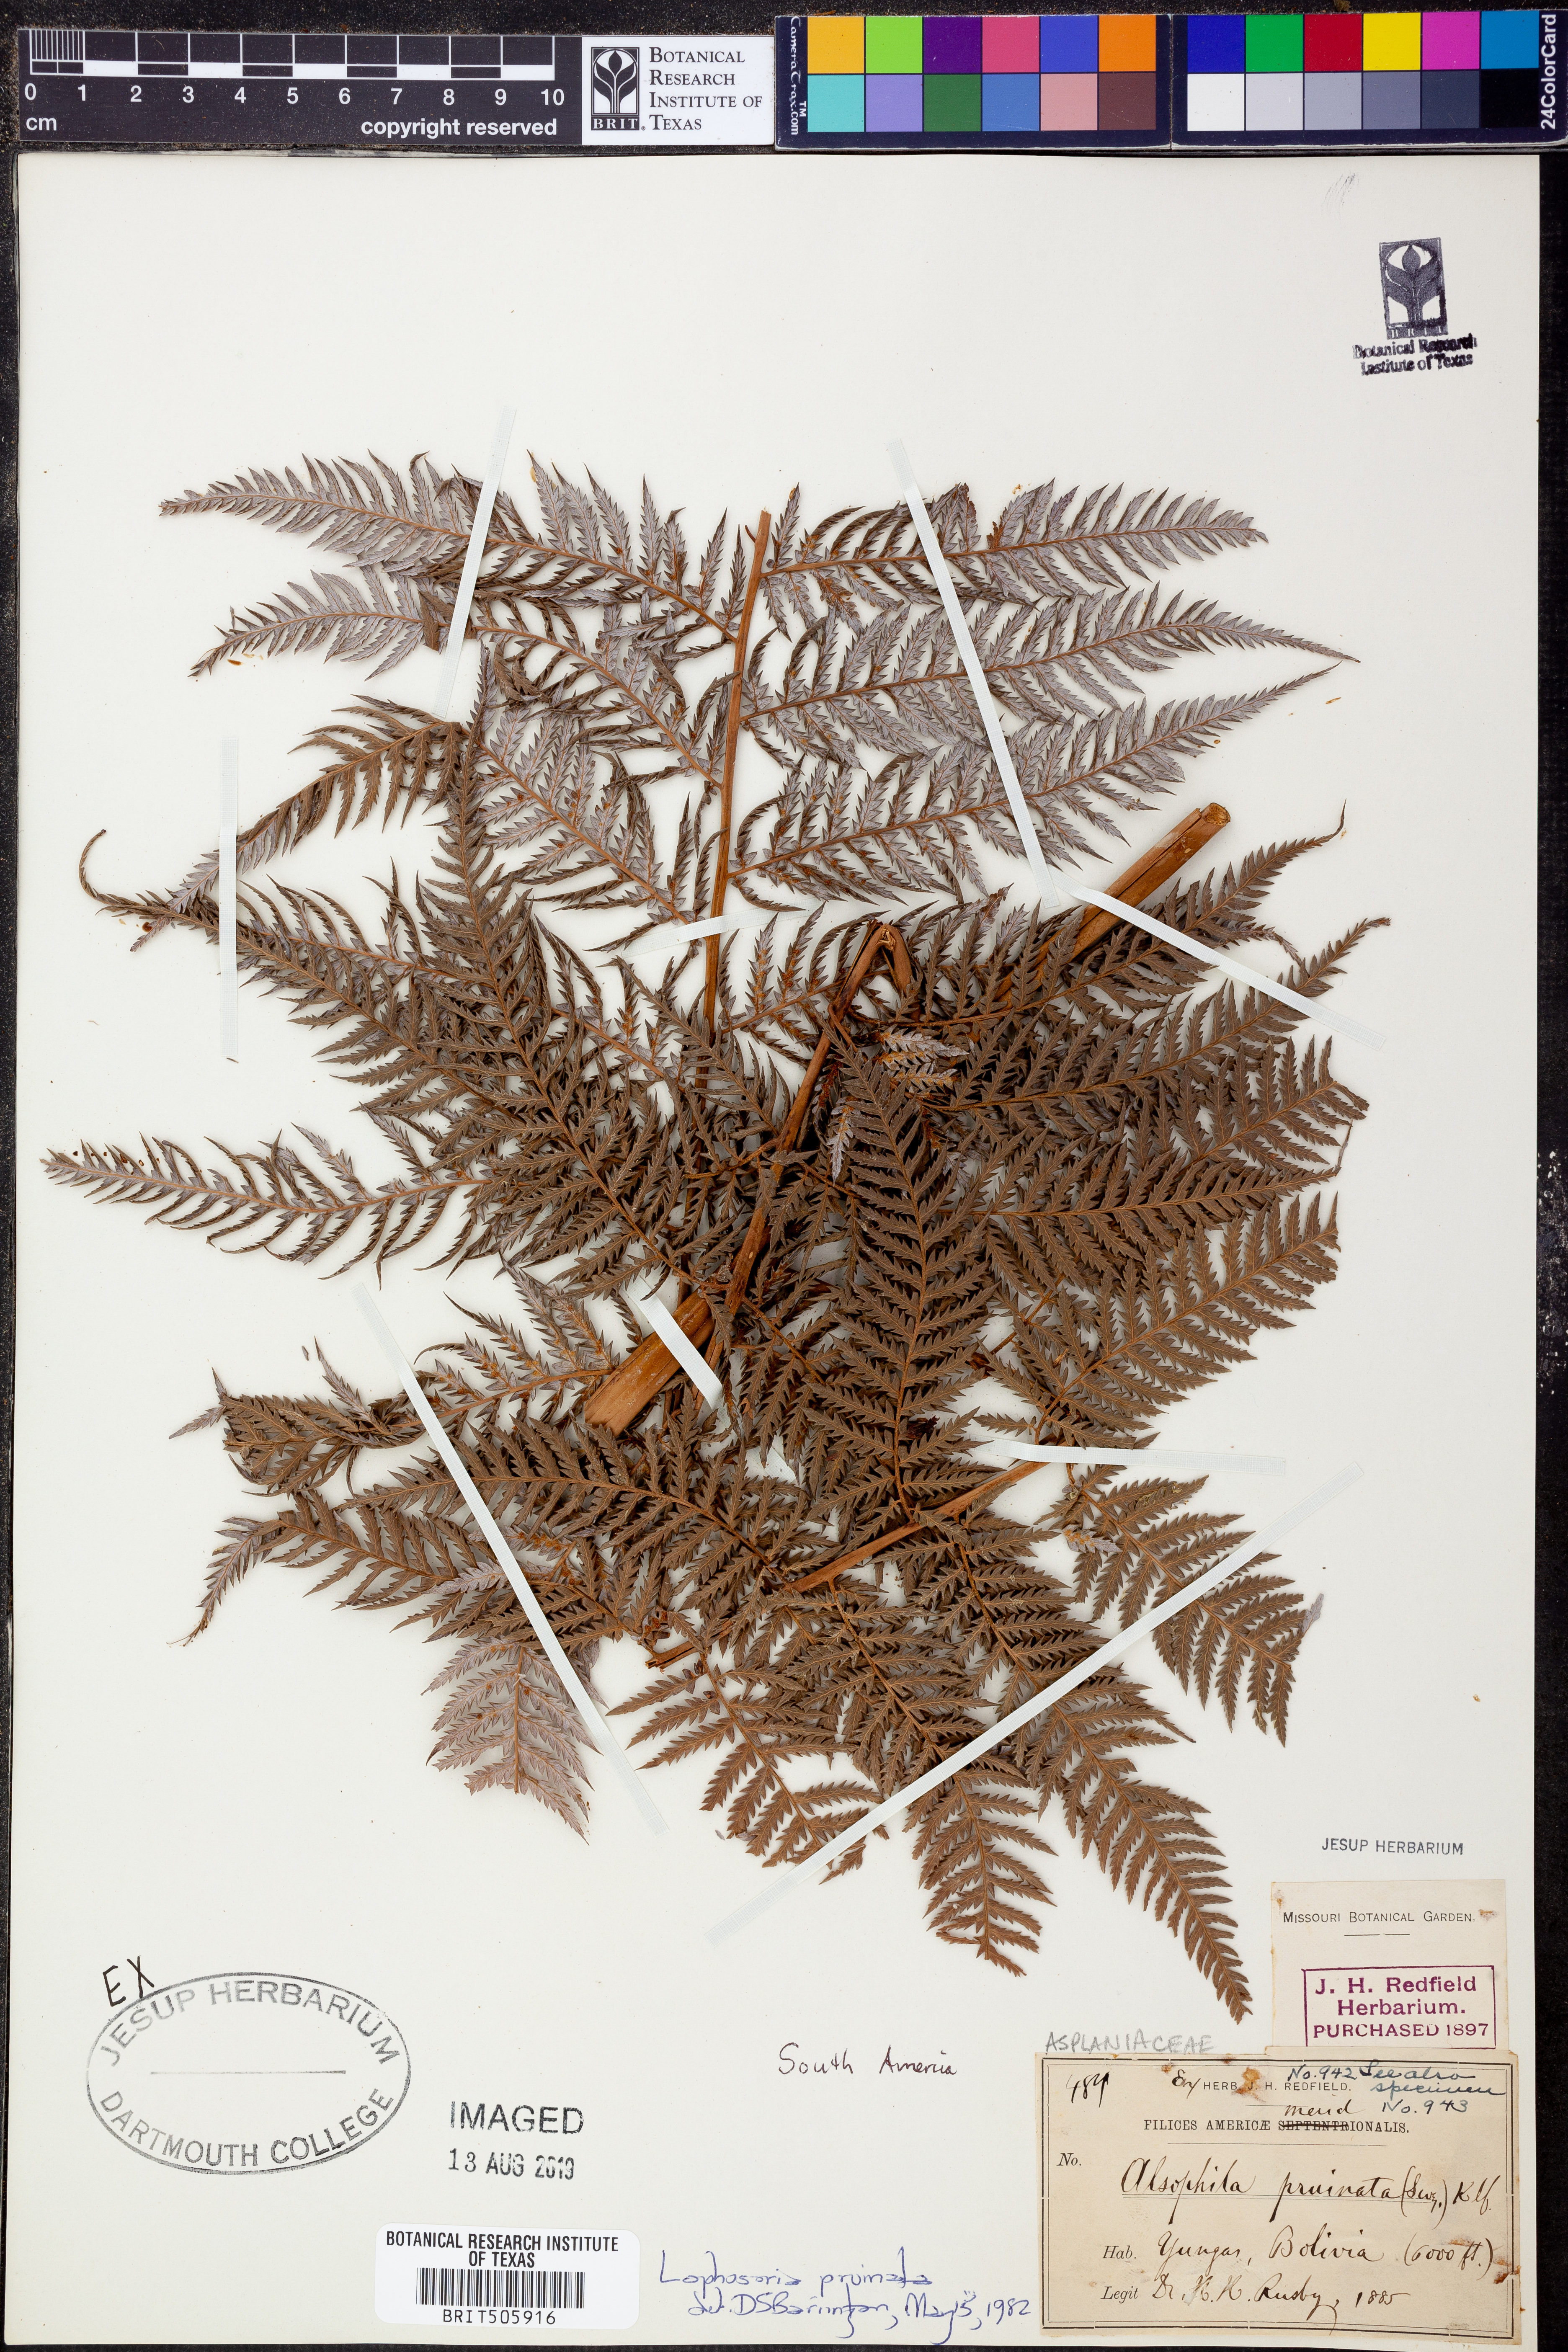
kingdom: Plantae
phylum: Tracheophyta
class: Polypodiopsida
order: Cyatheales
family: Dicksoniaceae
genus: Lophosoria
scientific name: Lophosoria quadripinnata
